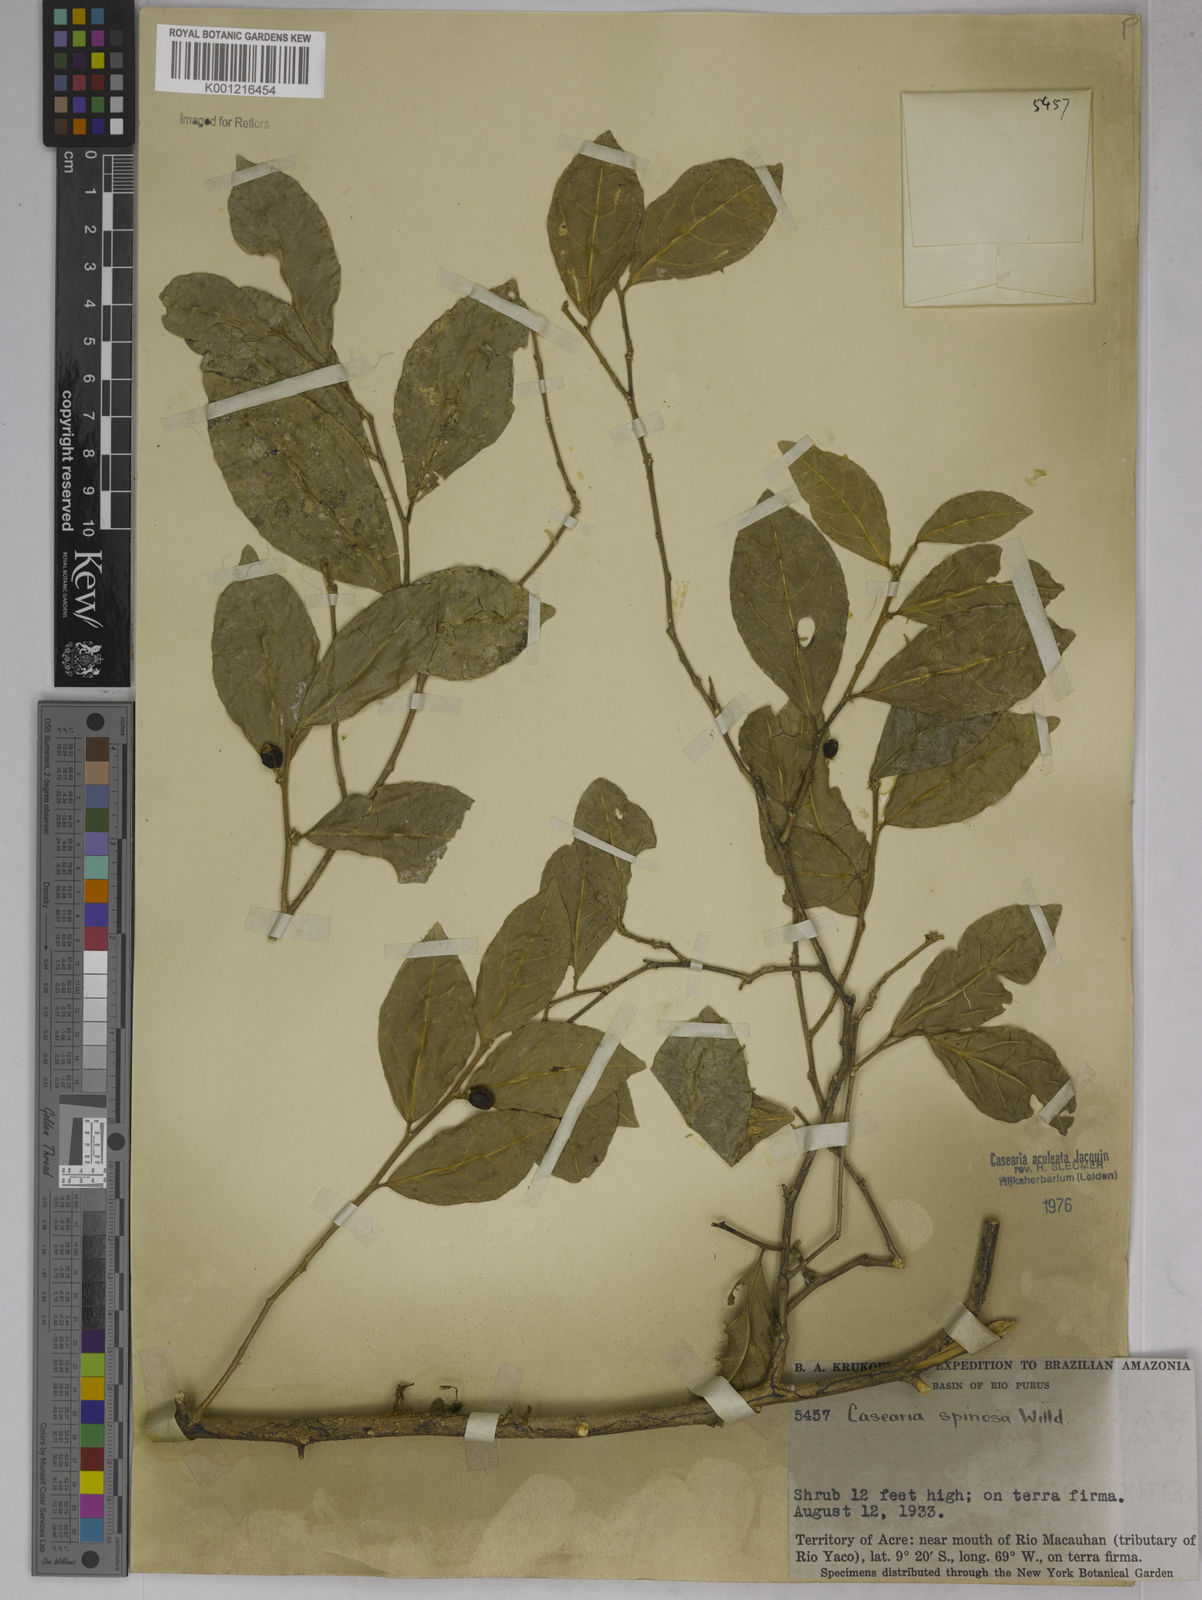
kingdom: Plantae
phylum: Tracheophyta
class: Magnoliopsida
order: Malpighiales
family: Salicaceae
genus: Casearia
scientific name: Casearia aculeata
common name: Cockspur
